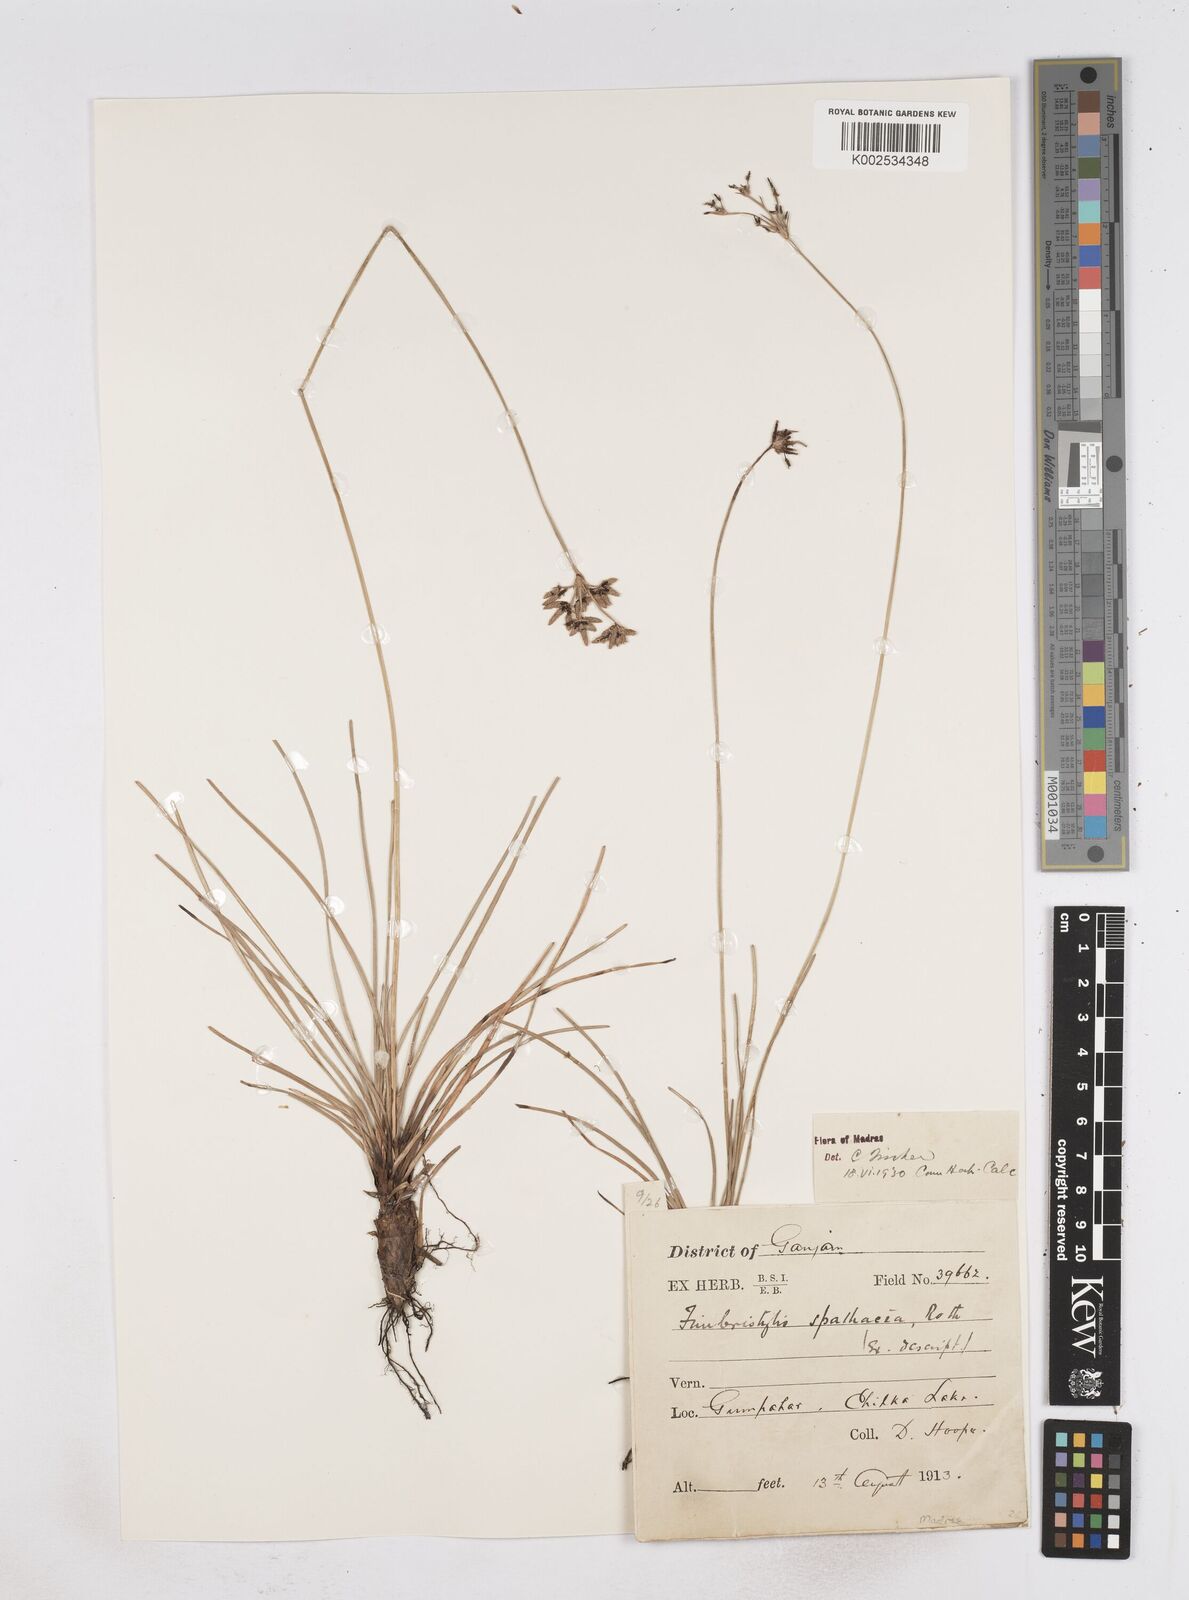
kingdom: Plantae
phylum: Tracheophyta
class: Liliopsida
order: Poales
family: Cyperaceae
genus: Fimbristylis
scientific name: Fimbristylis cymosa
